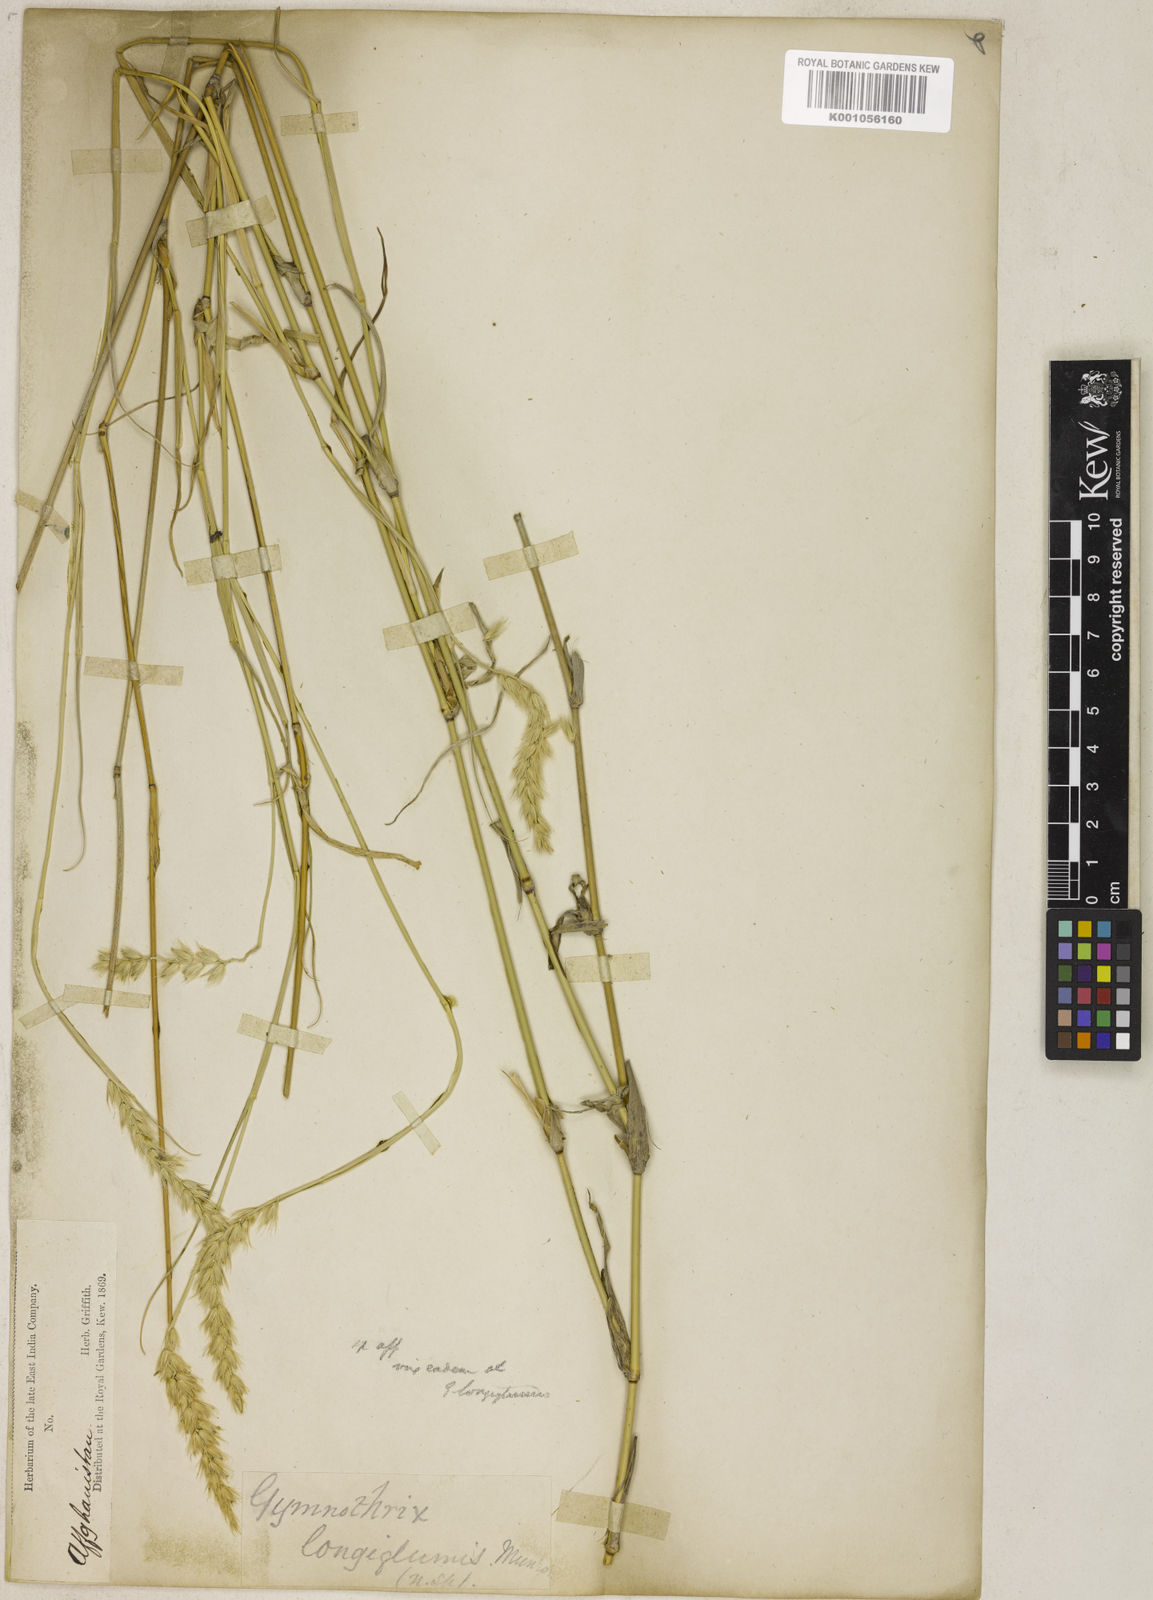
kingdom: Plantae
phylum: Tracheophyta
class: Liliopsida
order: Poales
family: Poaceae
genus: Cenchrus
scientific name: Cenchrus divisus
